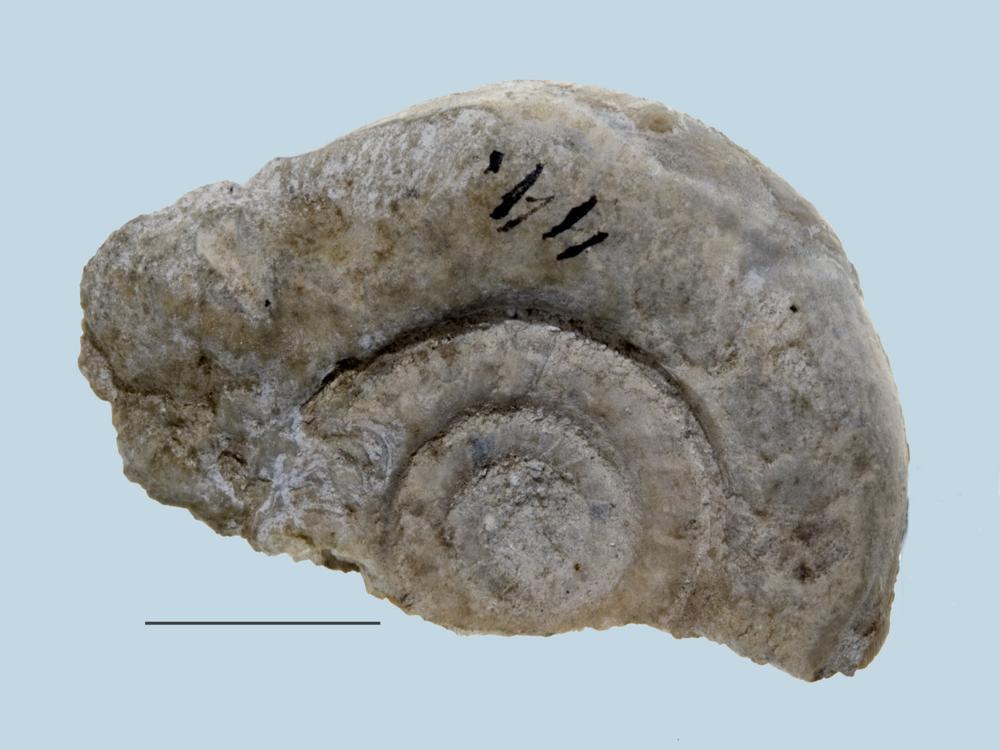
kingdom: Animalia
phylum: Mollusca
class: Cephalopoda
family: Lituitidae
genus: Lituites
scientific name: Lituites
